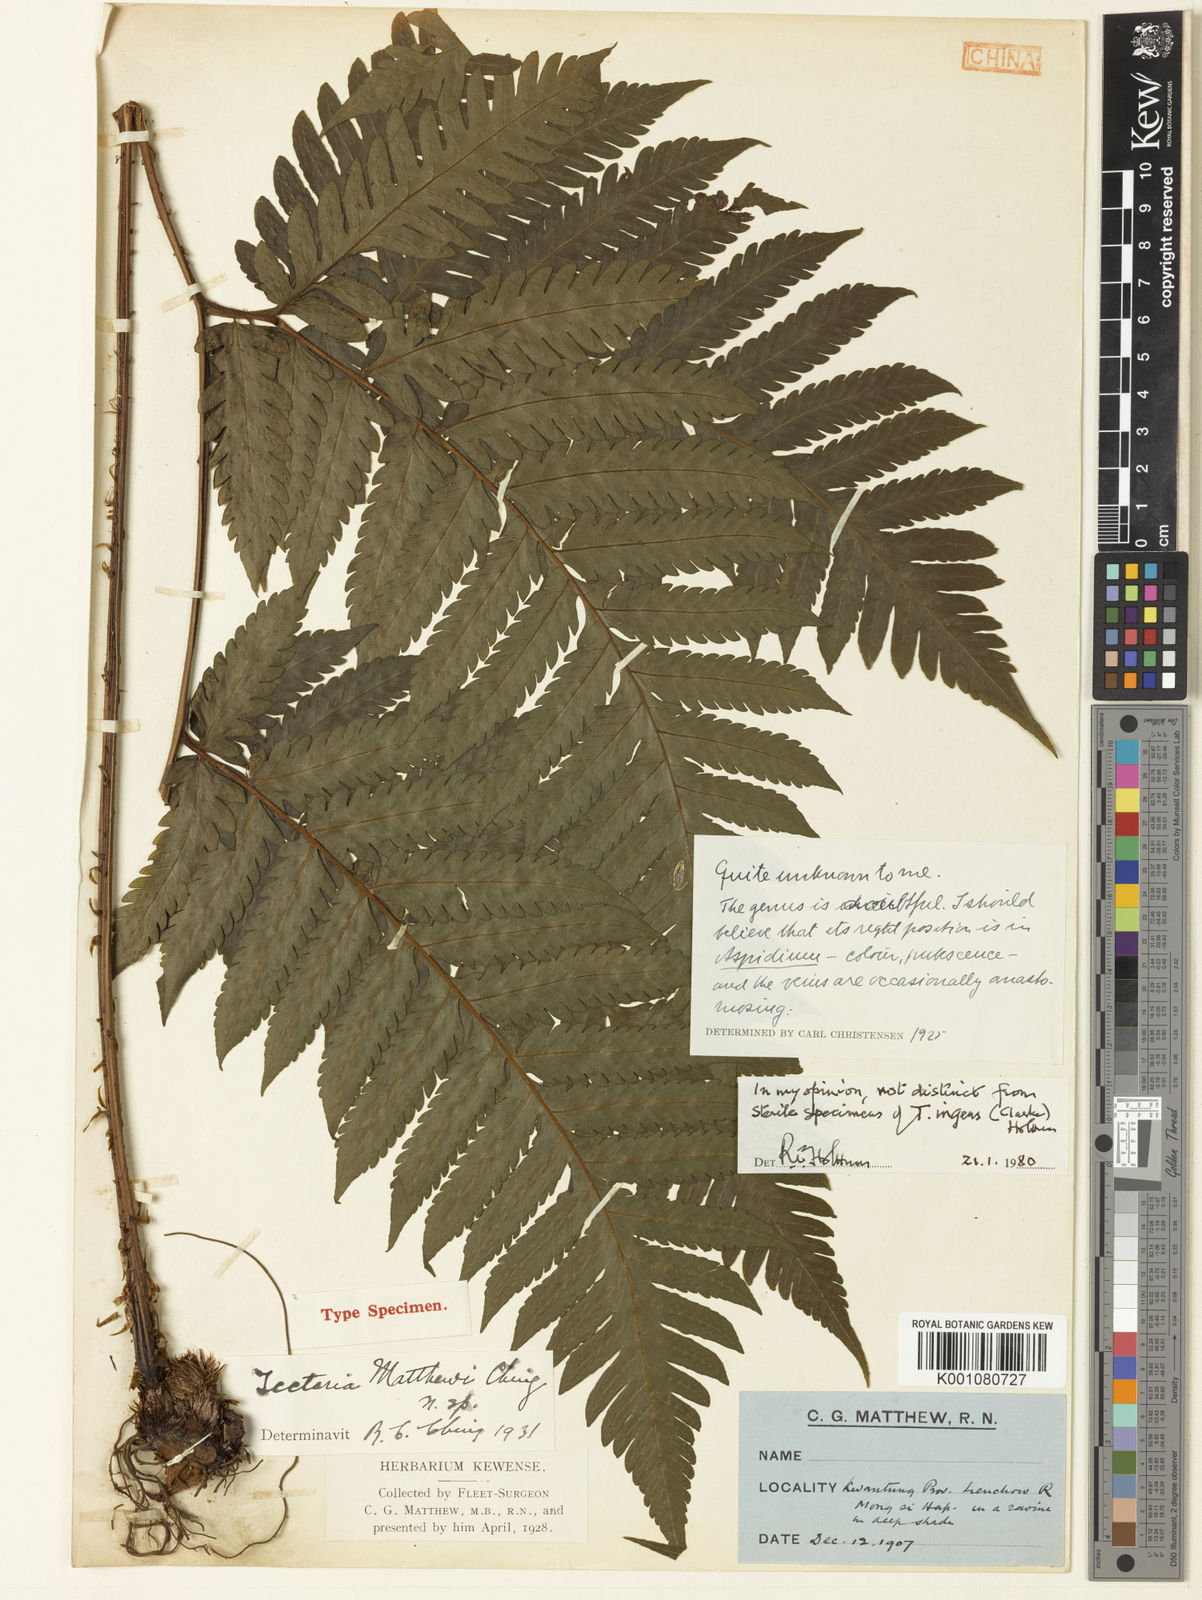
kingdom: Plantae
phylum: Tracheophyta
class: Polypodiopsida
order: Polypodiales
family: Tectariaceae
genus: Tectaria
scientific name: Tectaria ingens
